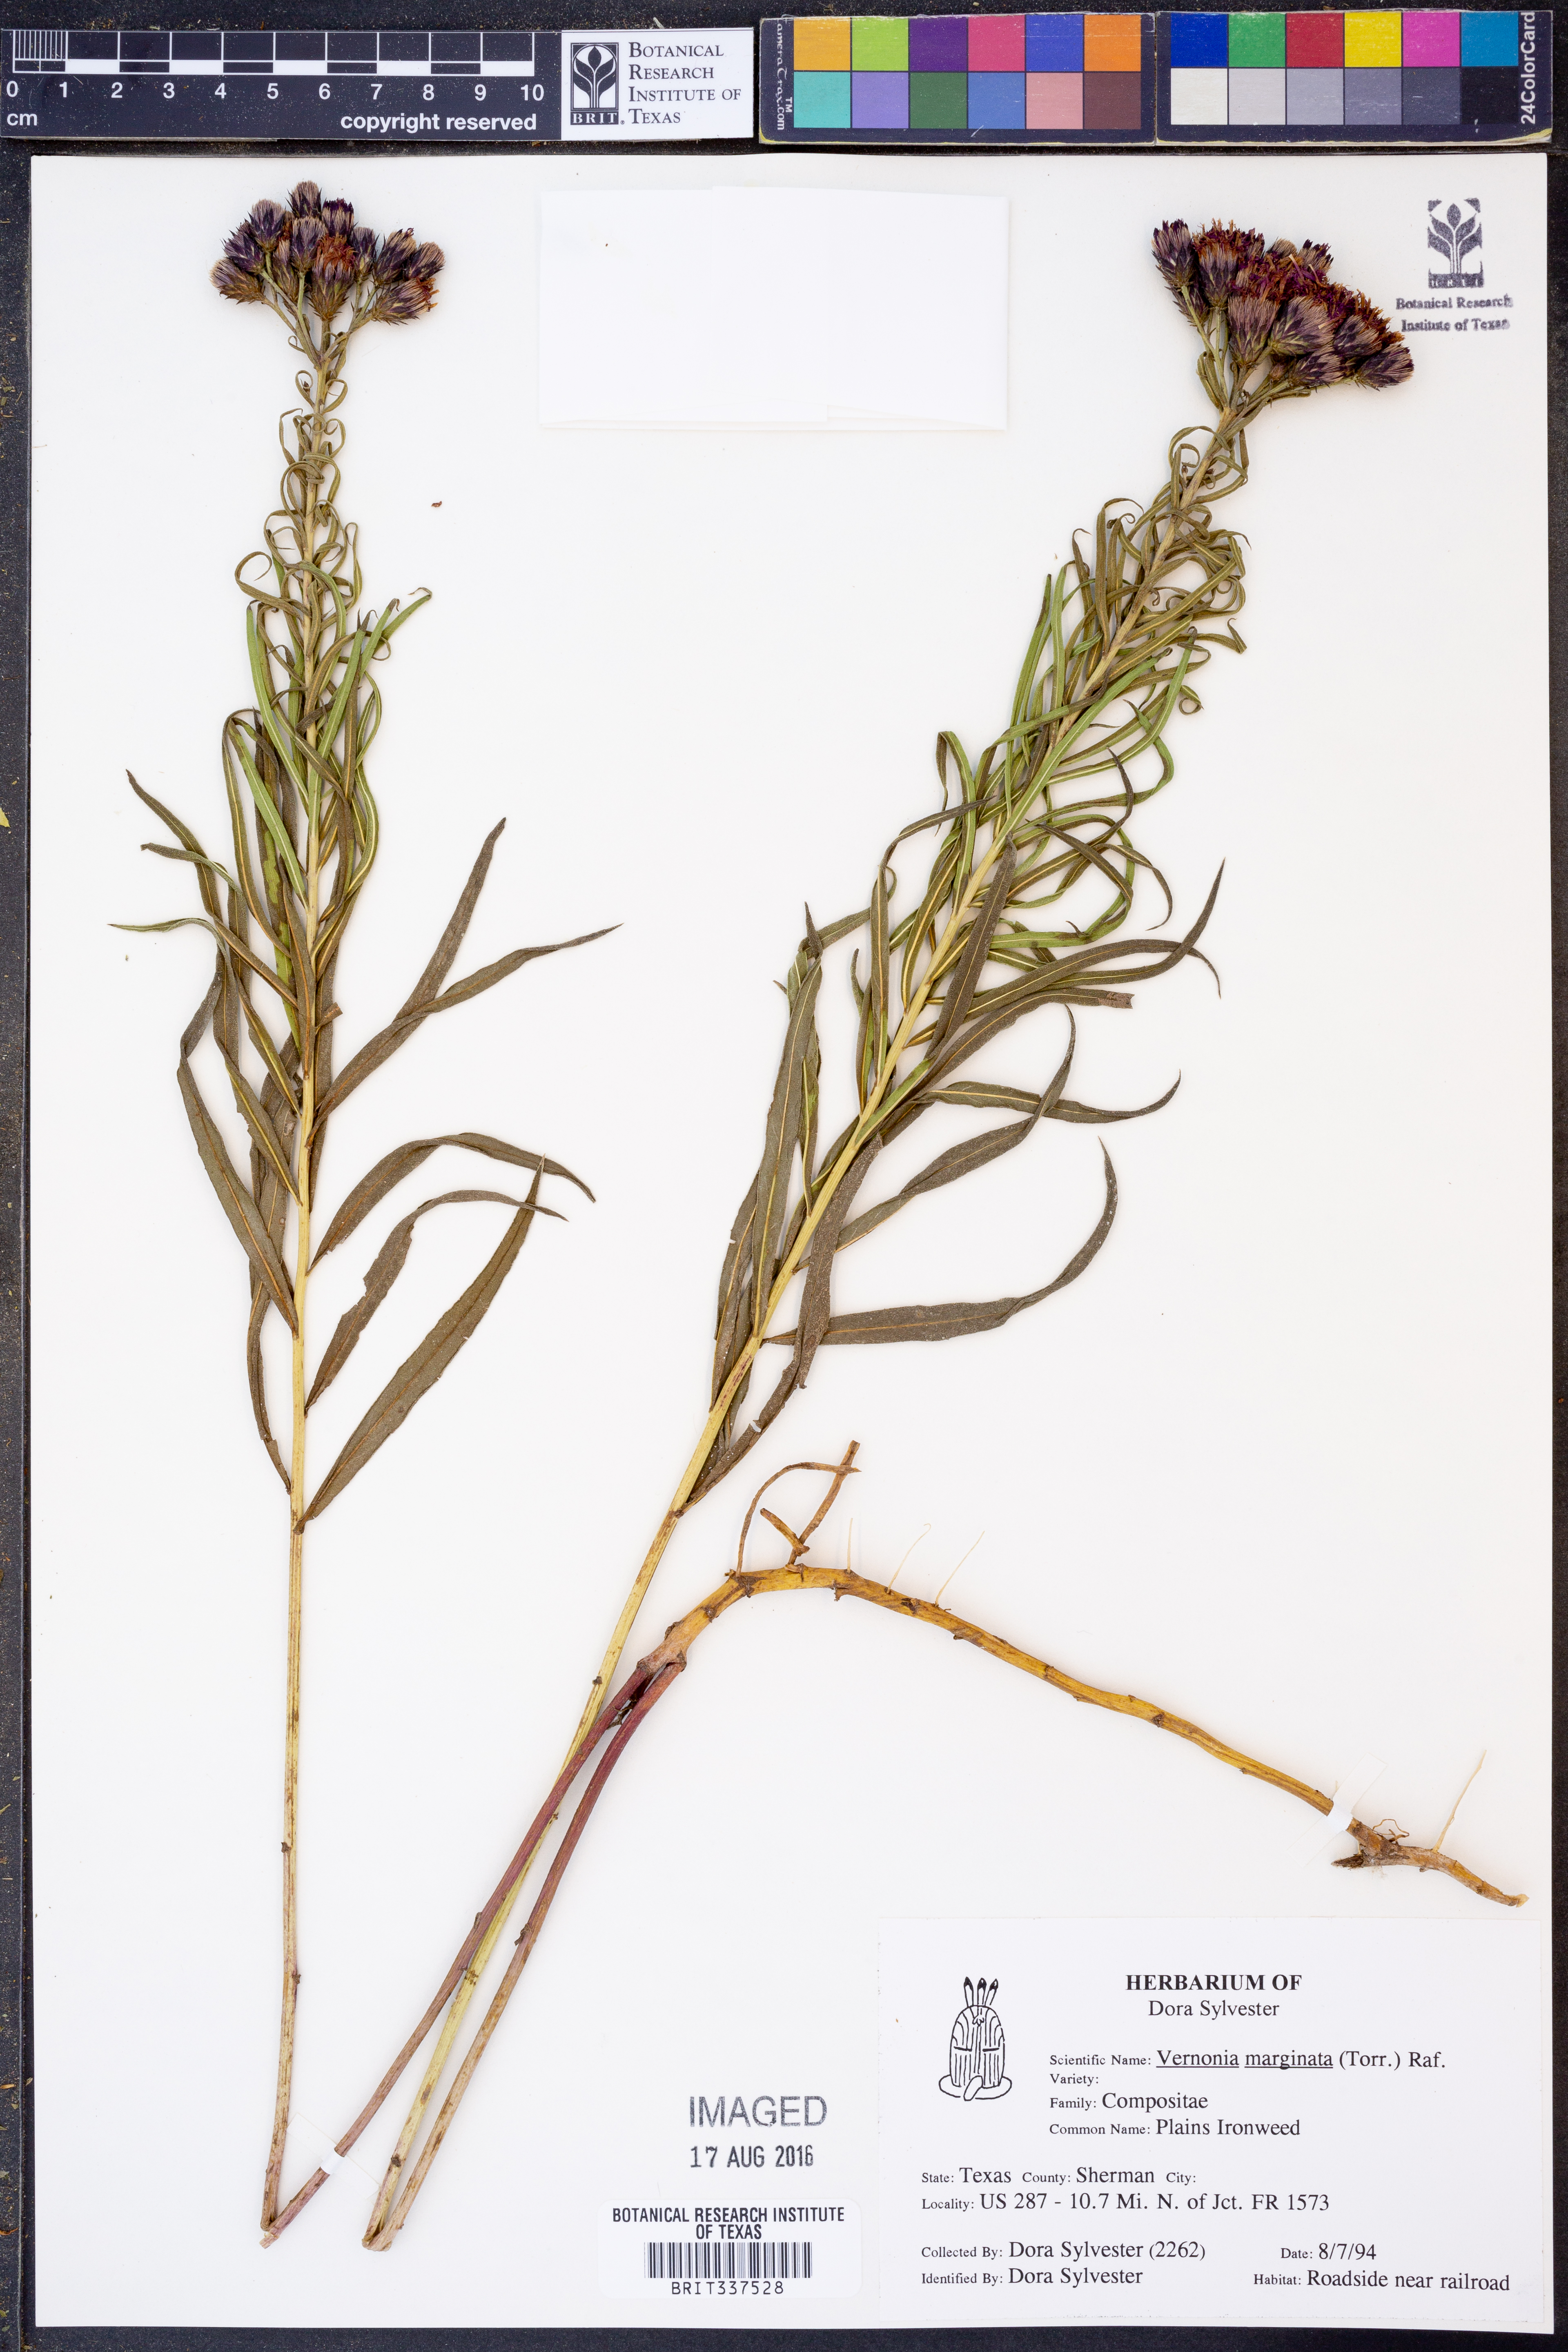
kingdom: Plantae
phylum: Tracheophyta
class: Magnoliopsida
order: Asterales
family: Asteraceae
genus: Vernonia
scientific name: Vernonia marginata
